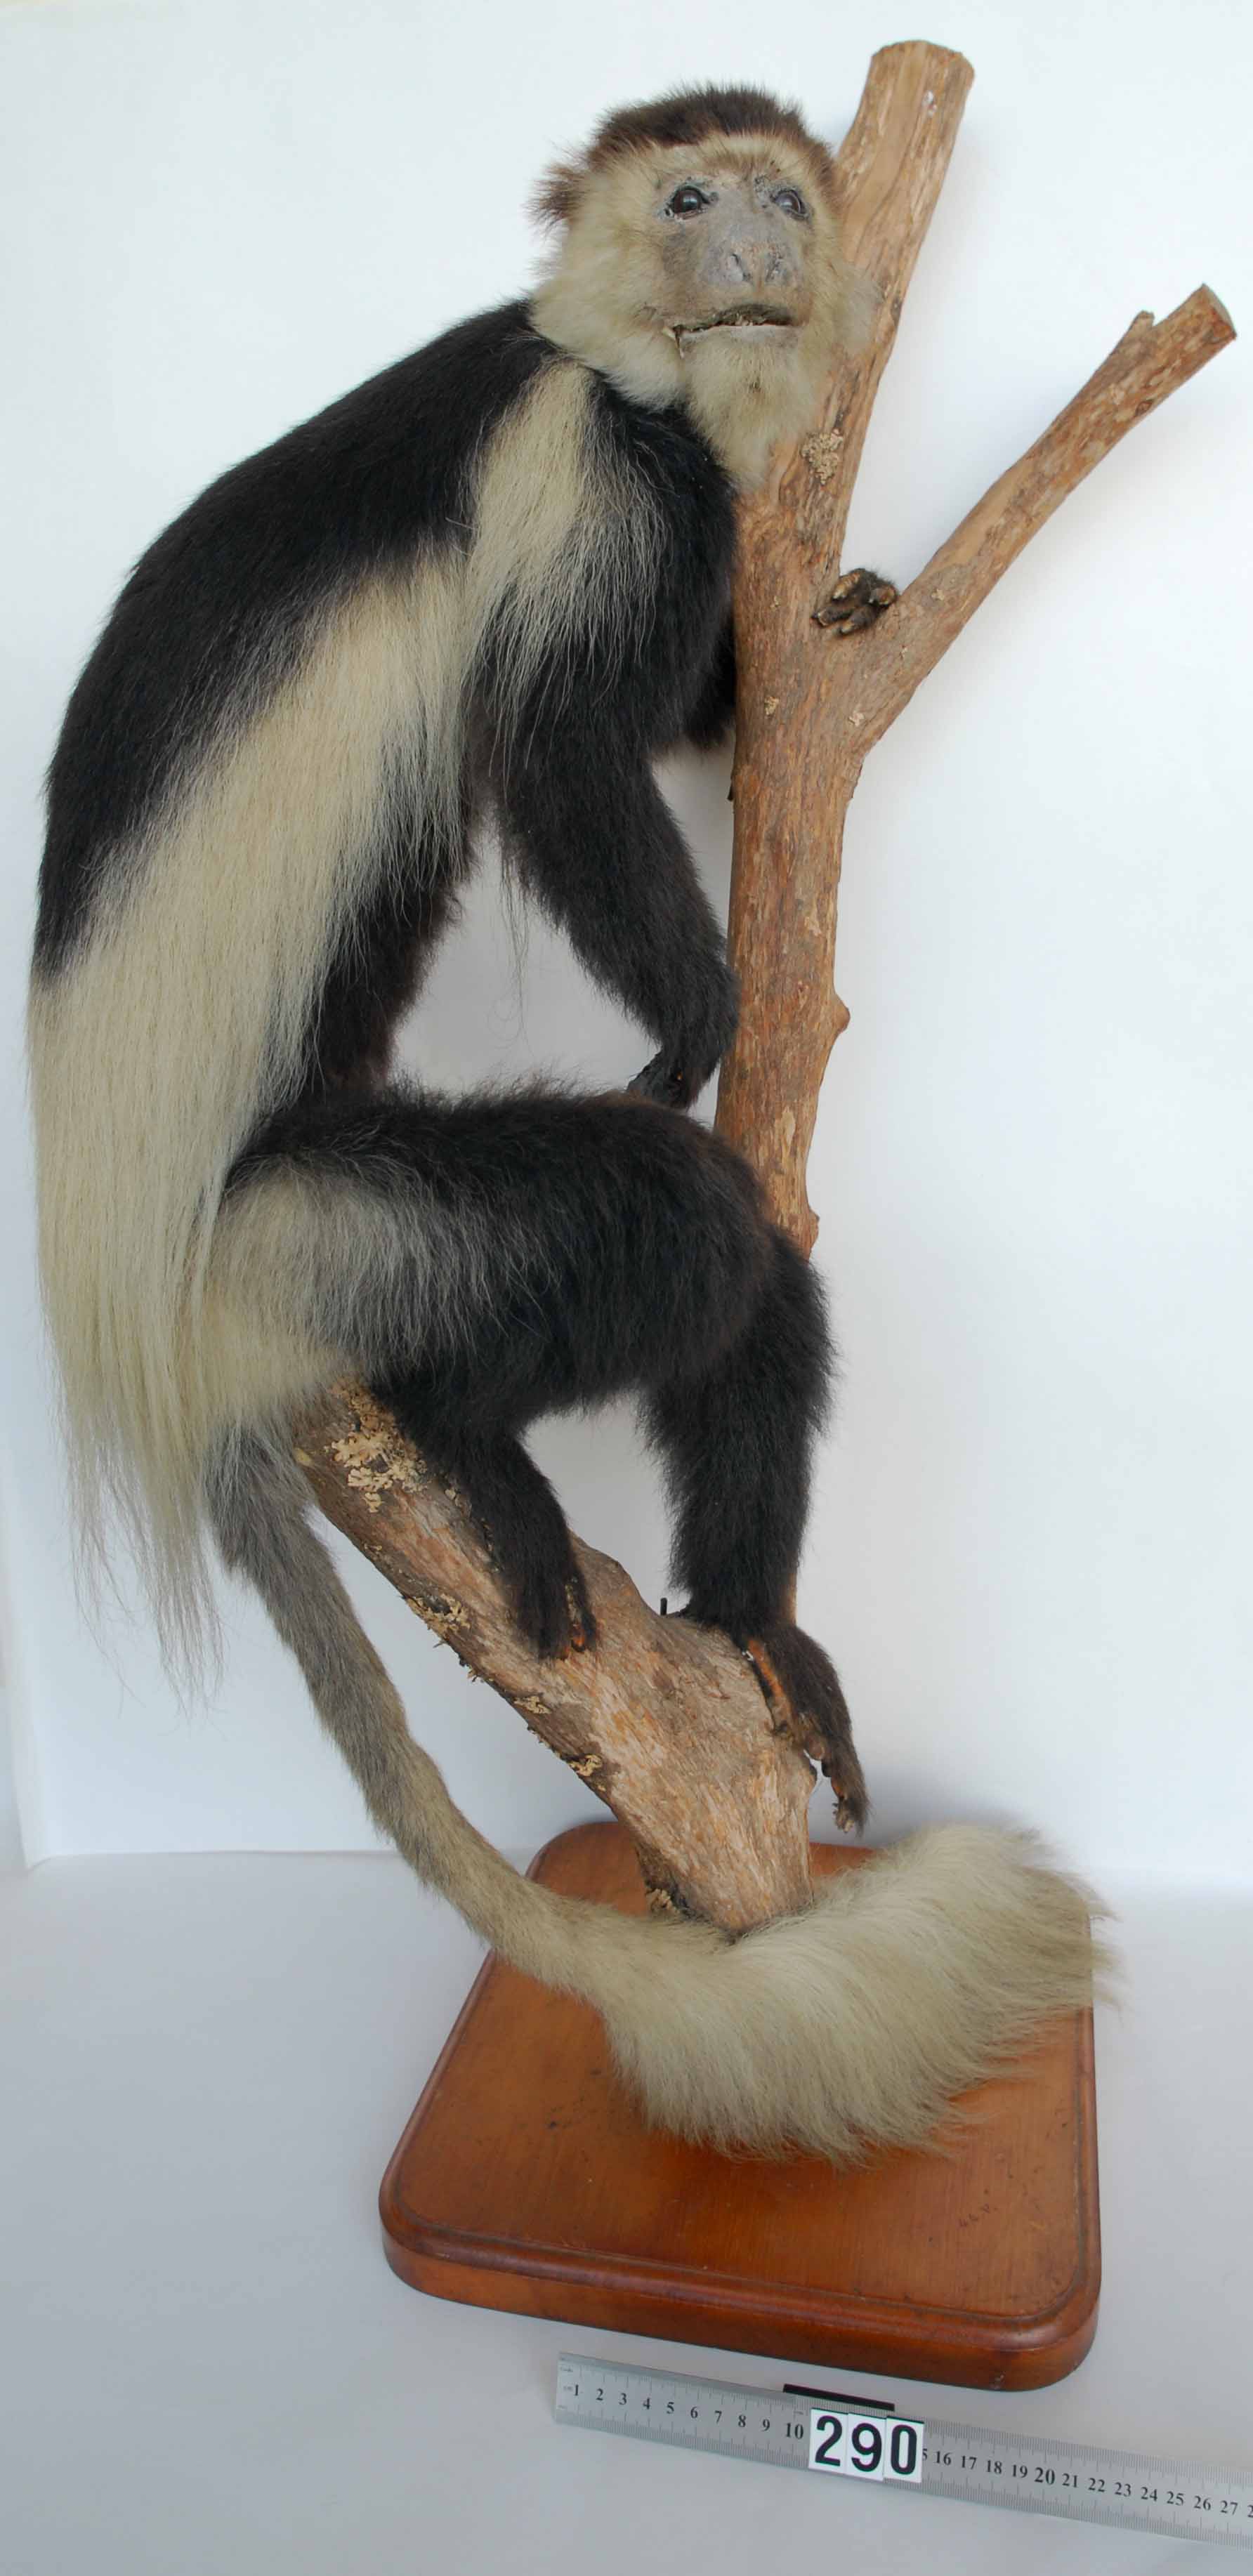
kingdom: Animalia
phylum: Chordata
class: Mammalia
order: Primates
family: Cercopithecidae
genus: Colobus
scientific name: Colobus
